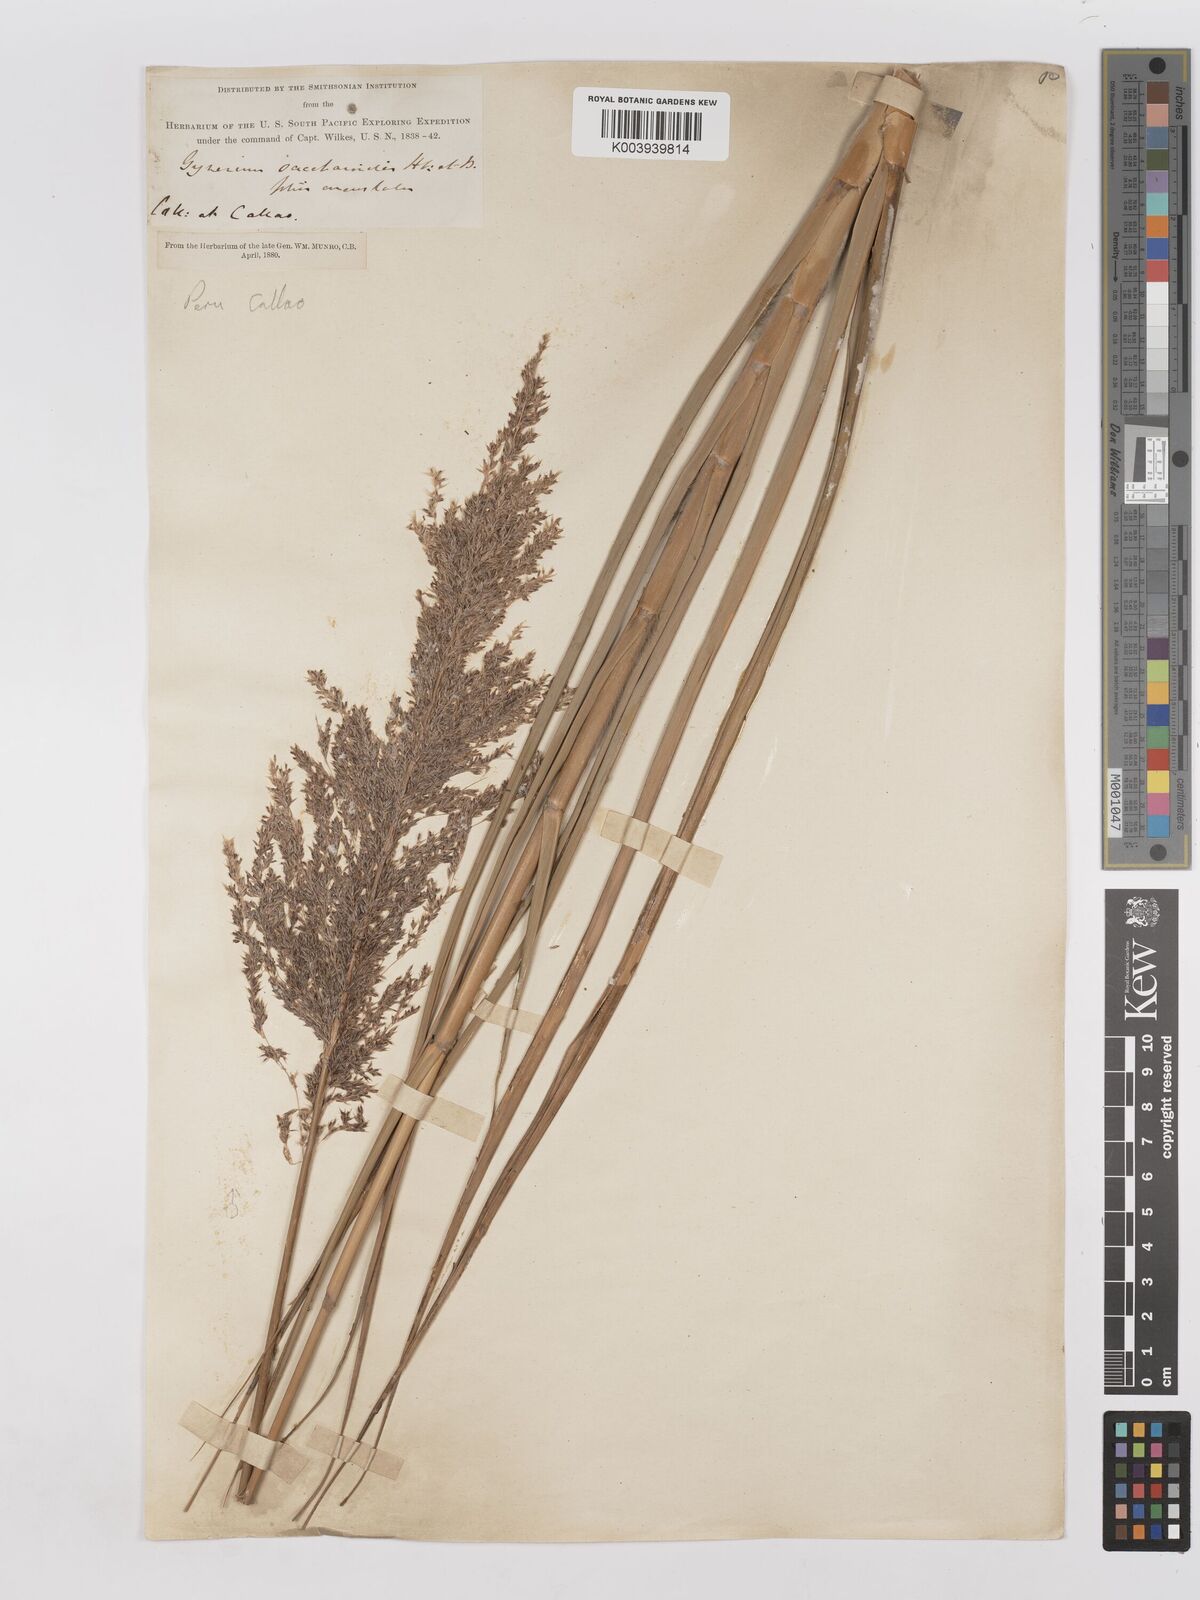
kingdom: Plantae
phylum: Tracheophyta
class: Liliopsida
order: Poales
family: Poaceae
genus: Gynerium
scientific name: Gynerium sagittatum
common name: Wild cane
